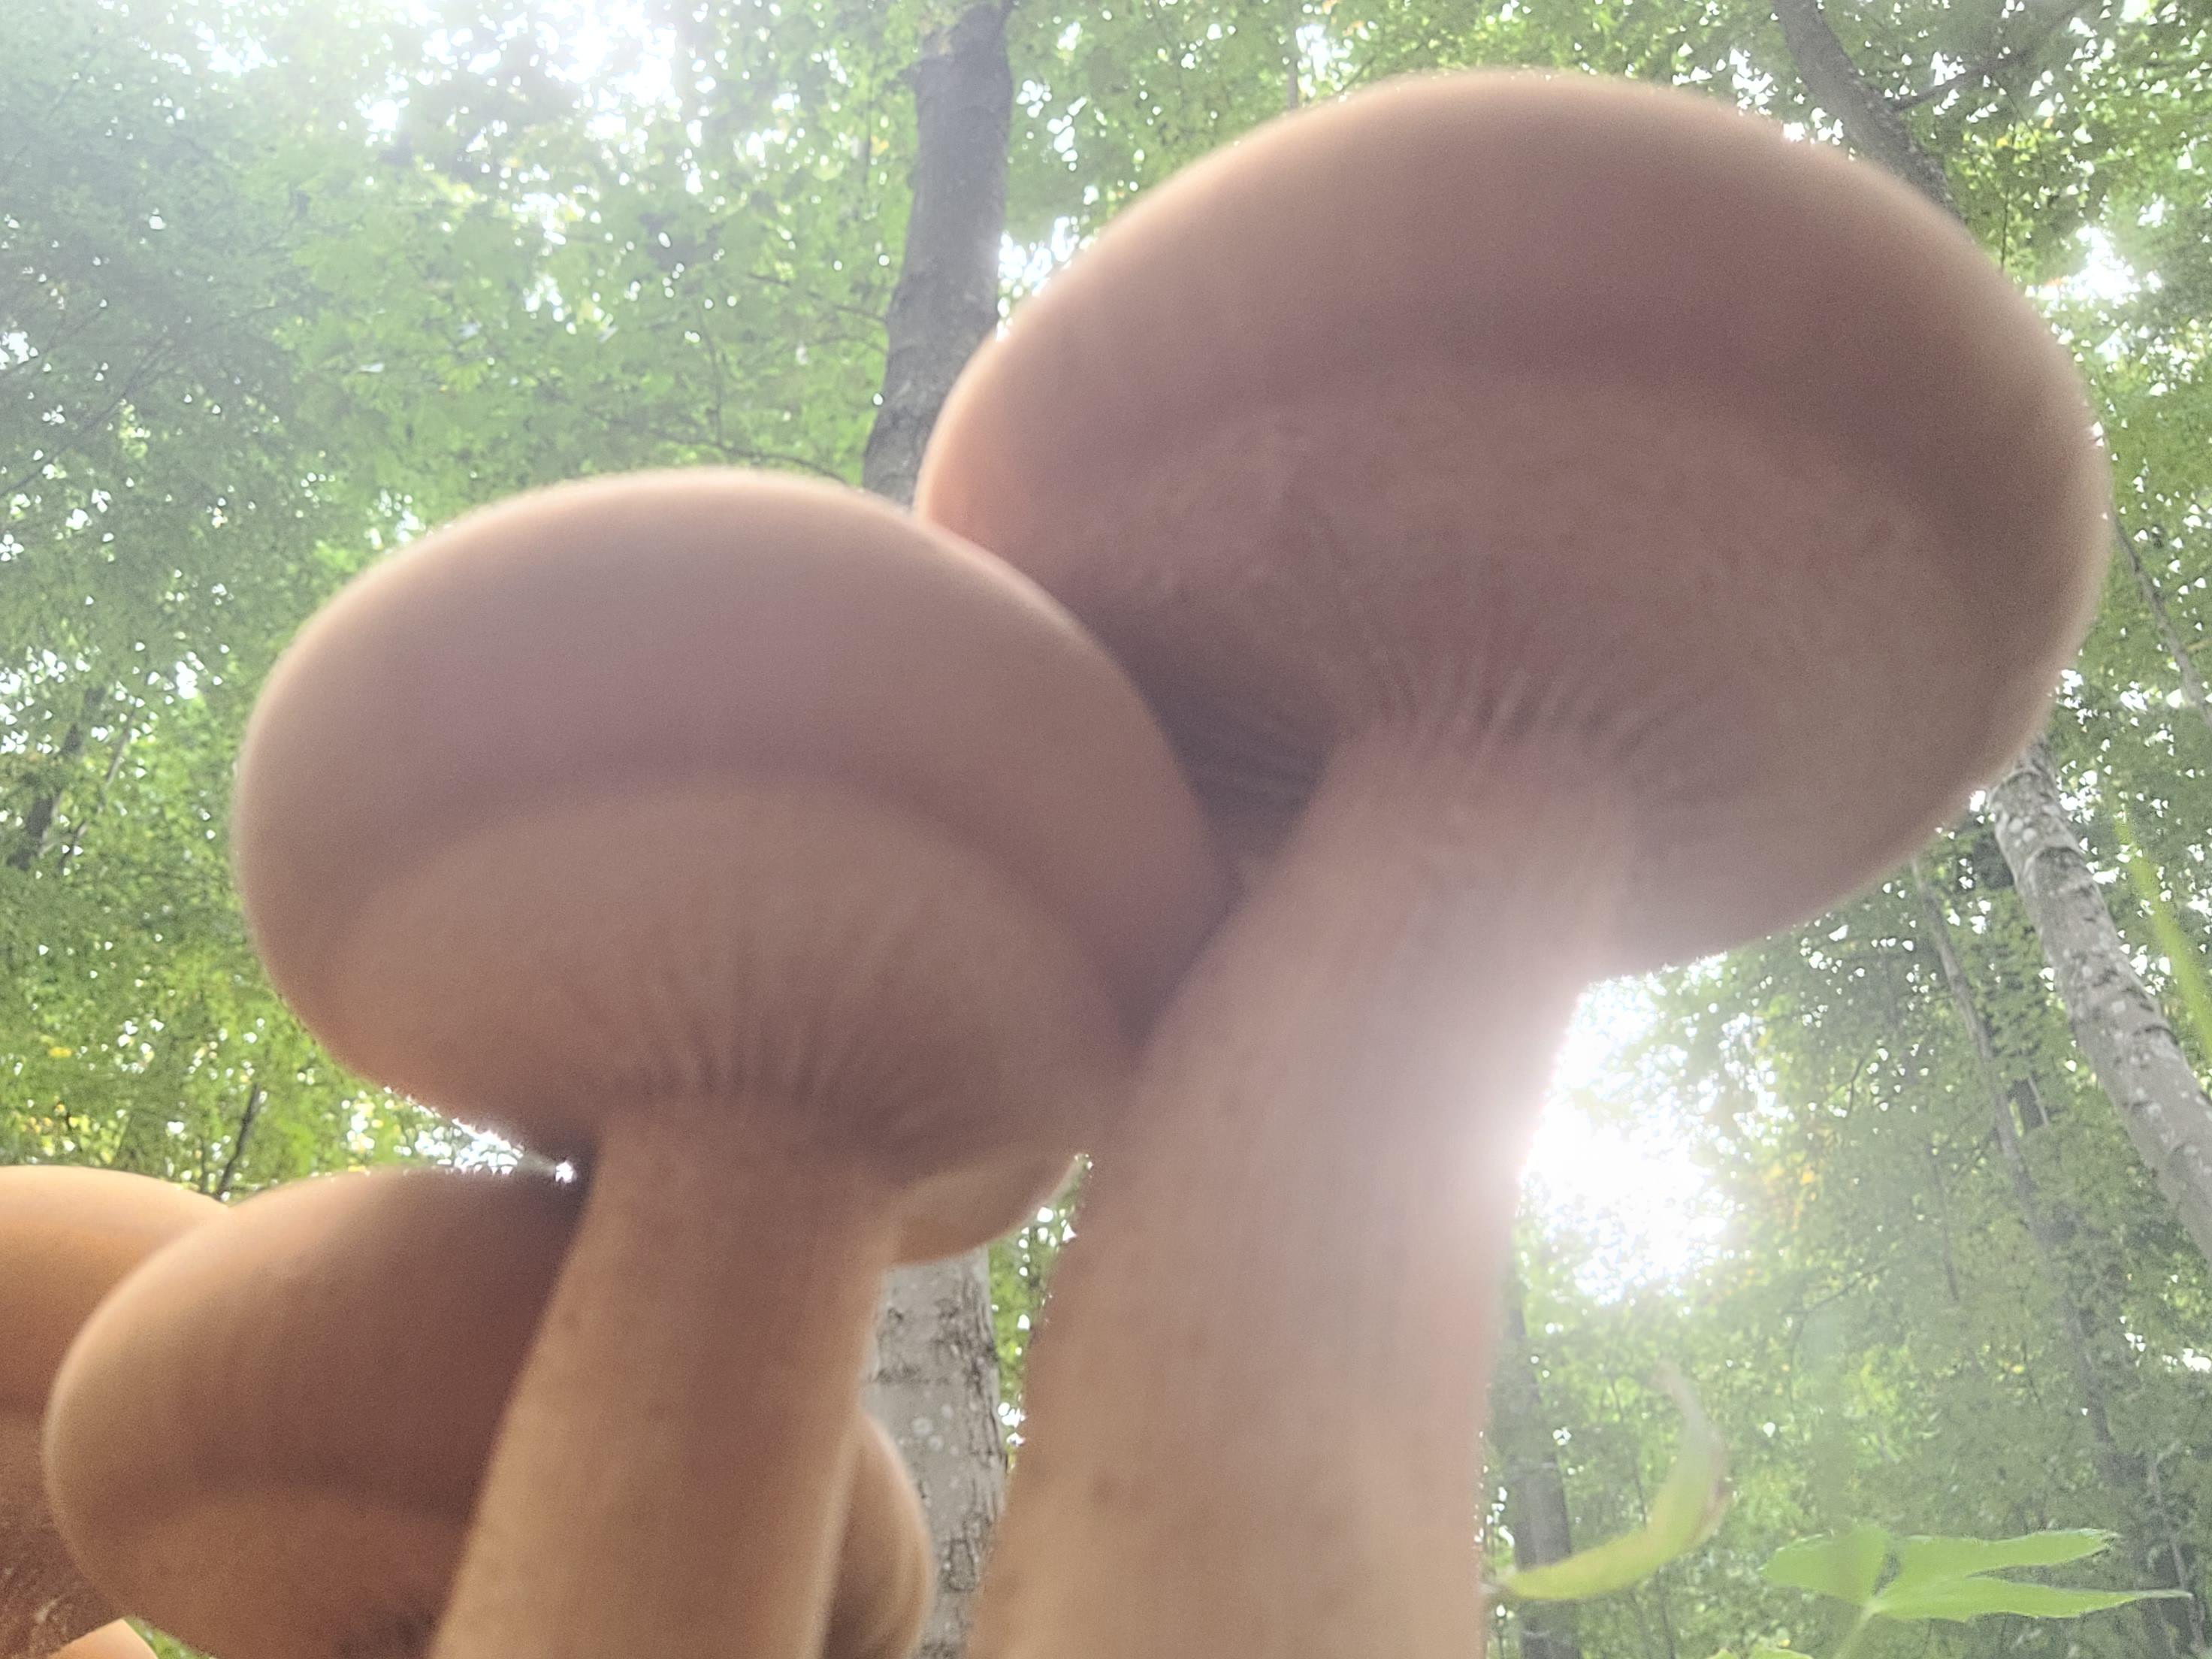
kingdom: Fungi
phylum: Basidiomycota
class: Agaricomycetes
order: Agaricales
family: Tricholomataceae
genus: Phaeolepiota
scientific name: Phaeolepiota aurea
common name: gyldenhat
